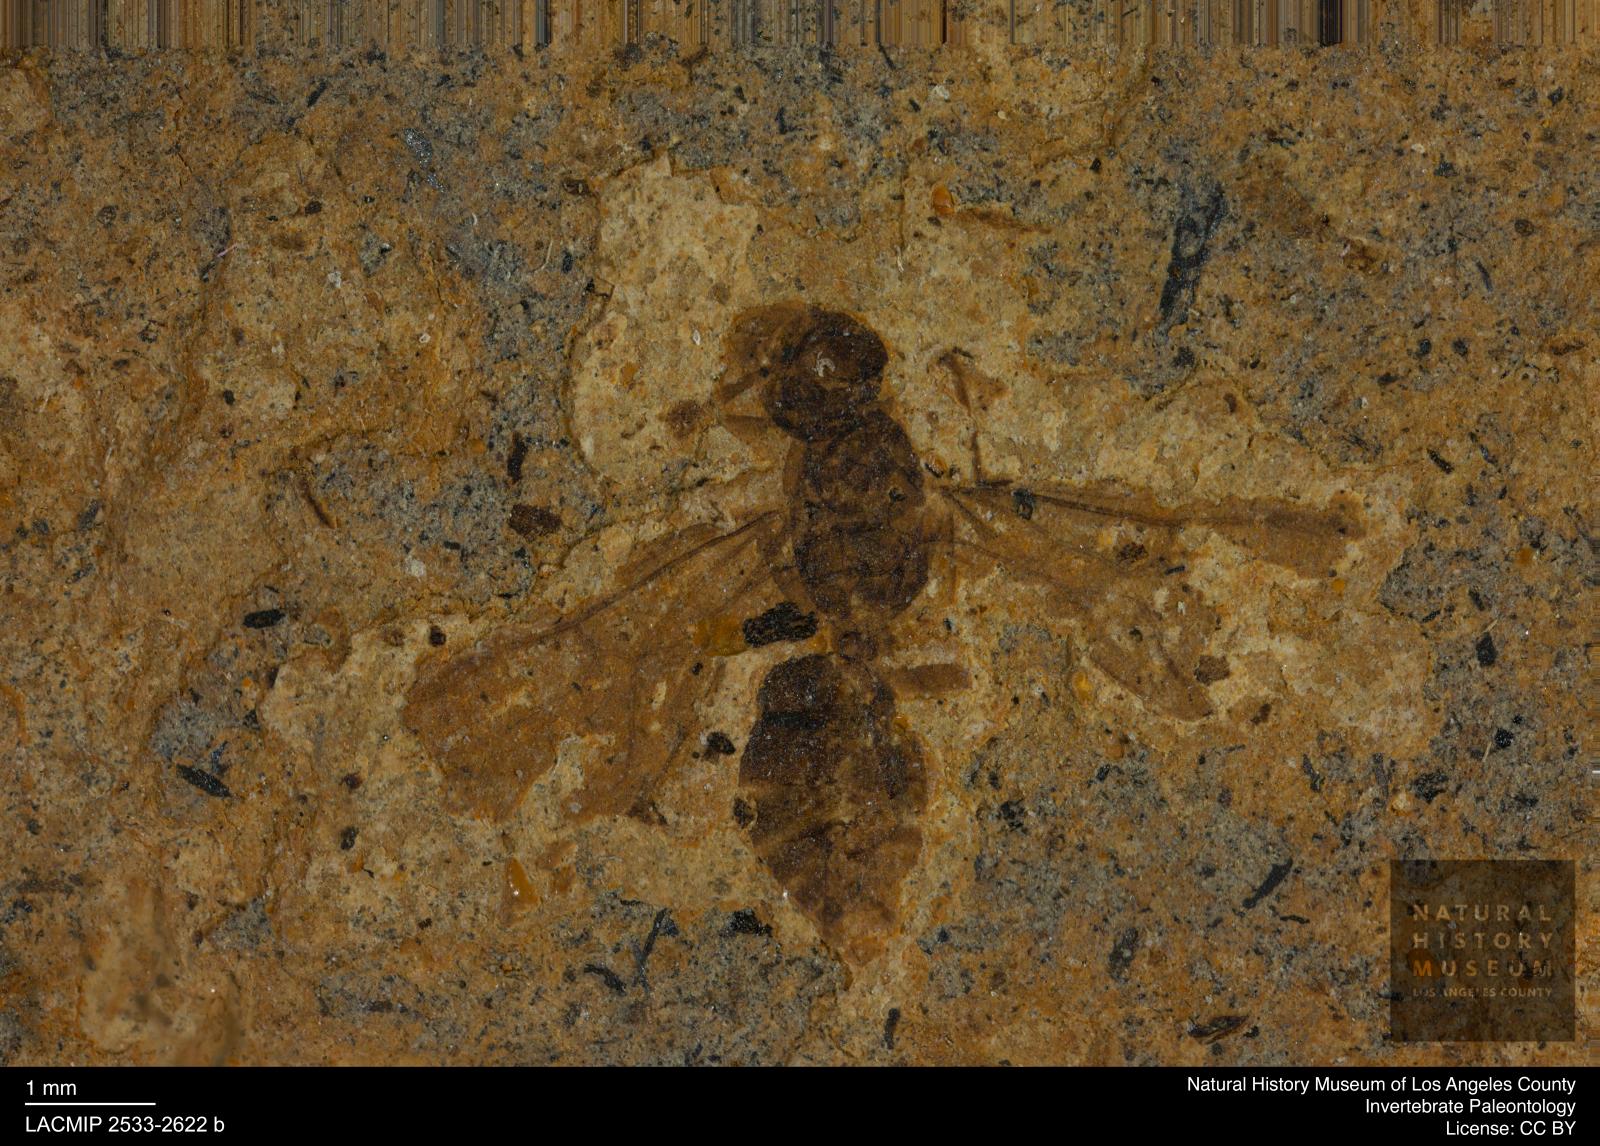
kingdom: Animalia
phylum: Arthropoda
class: Insecta
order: Hymenoptera
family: Formicidae
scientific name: Formicidae
